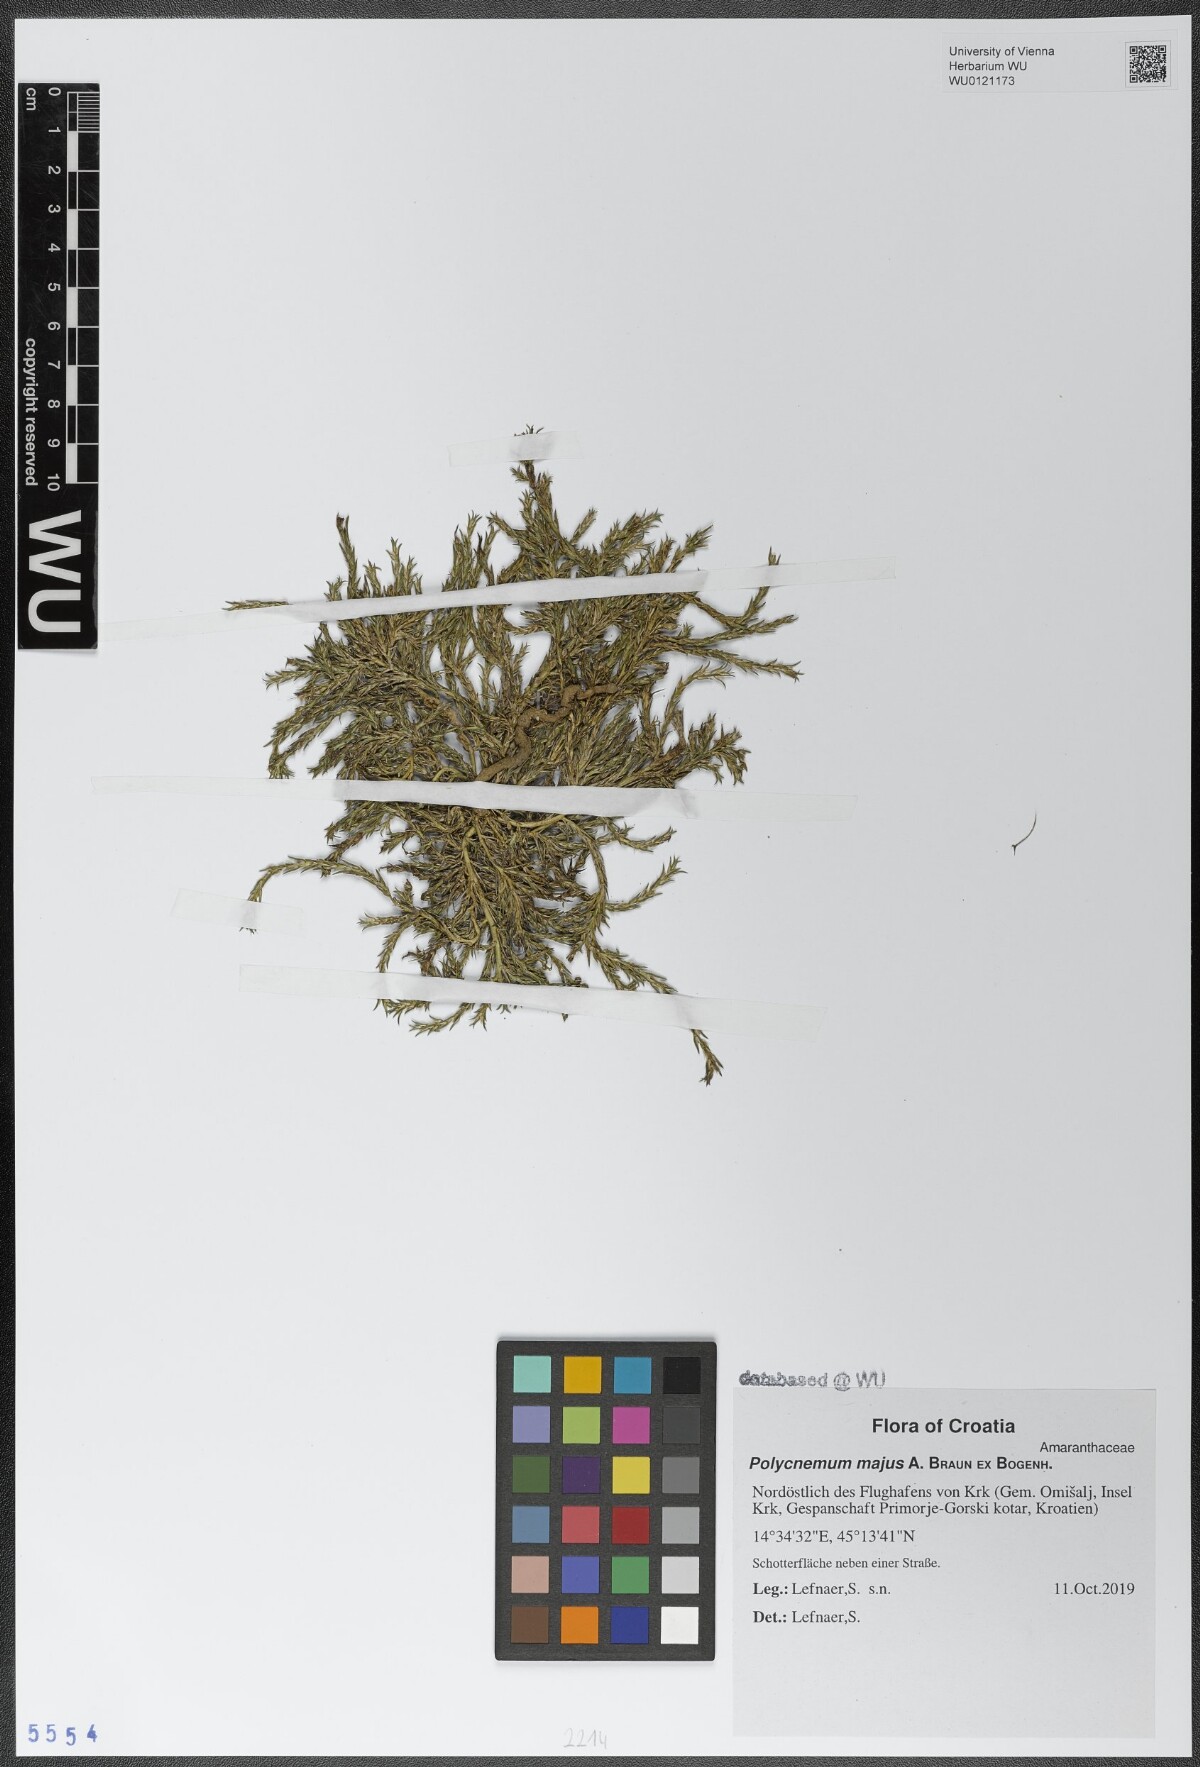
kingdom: Plantae
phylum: Tracheophyta
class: Magnoliopsida
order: Caryophyllales
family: Amaranthaceae
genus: Polycnemum
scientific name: Polycnemum majus
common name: Giant needleleaf
